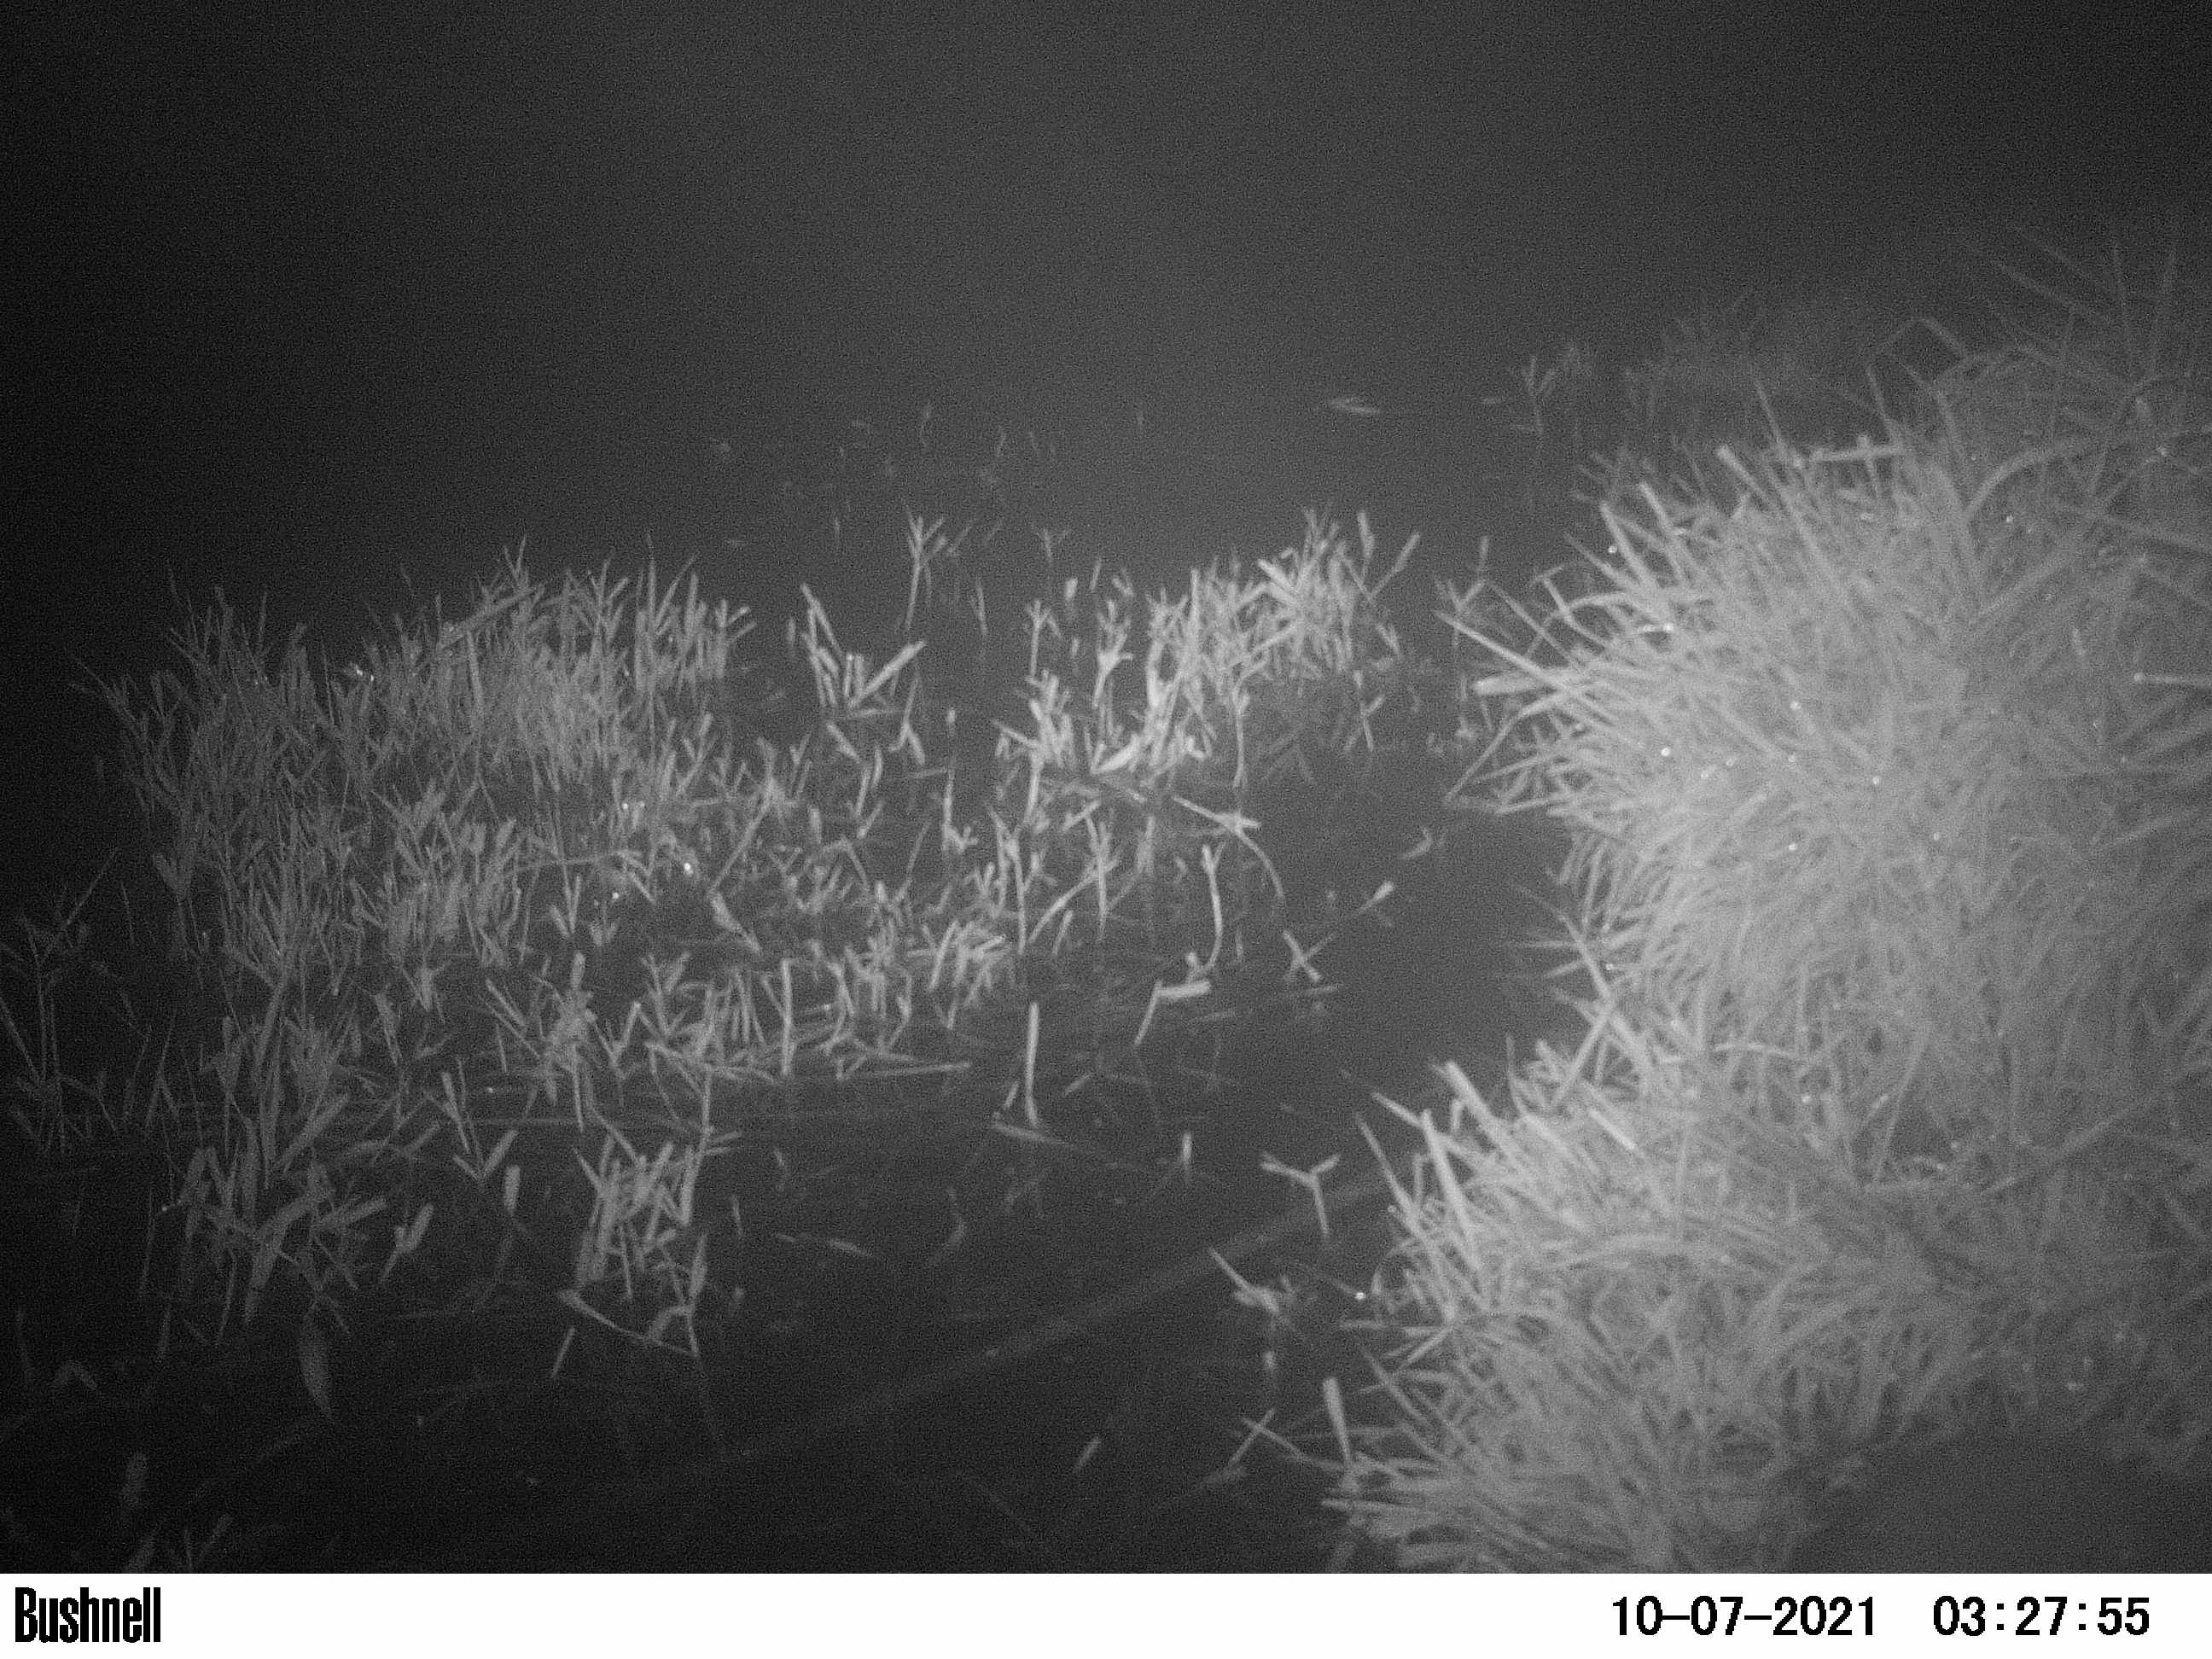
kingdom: Animalia
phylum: Chordata
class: Mammalia
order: Rodentia
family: Myocastoridae
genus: Myocastor
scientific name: Myocastor coypus
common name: Coypu
